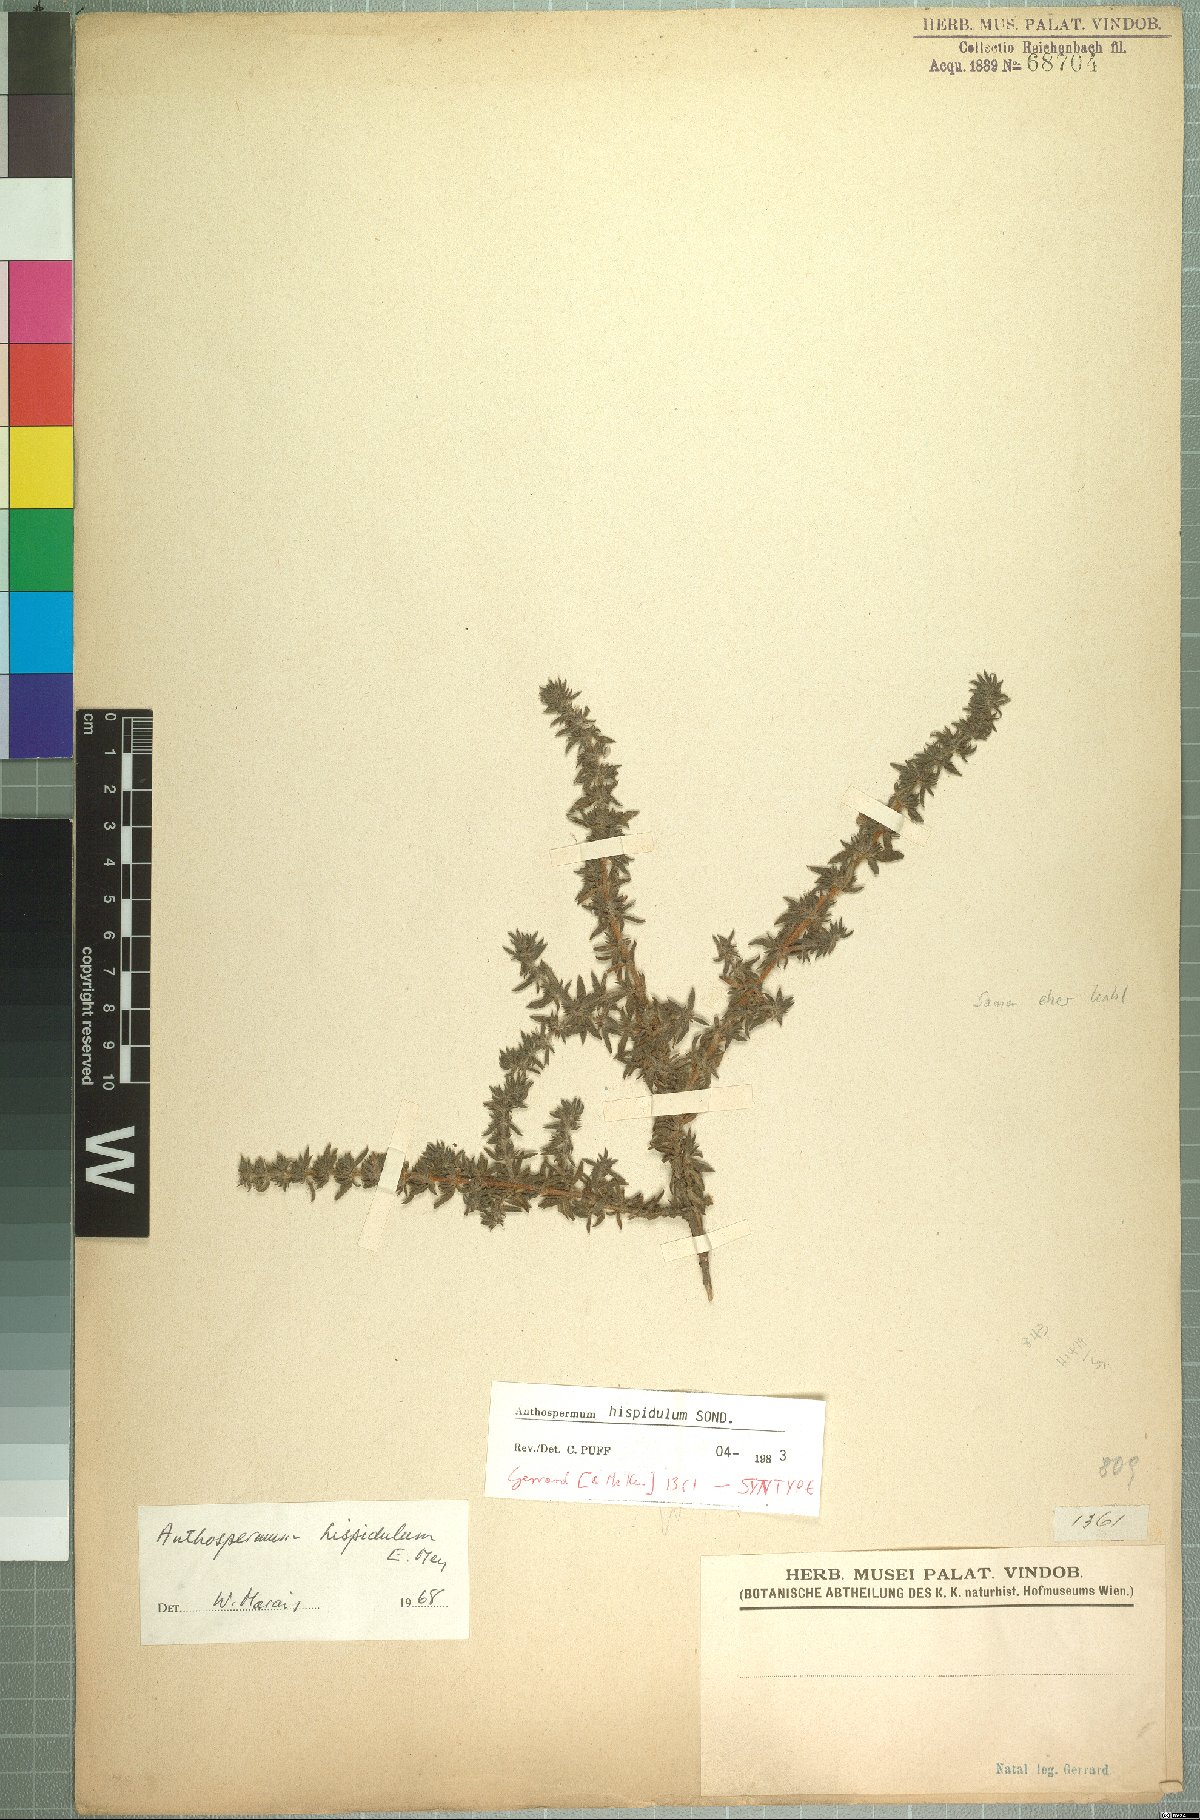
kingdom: Plantae
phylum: Tracheophyta
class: Magnoliopsida
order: Gentianales
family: Rubiaceae
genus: Anthospermum
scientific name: Anthospermum hispidulum
